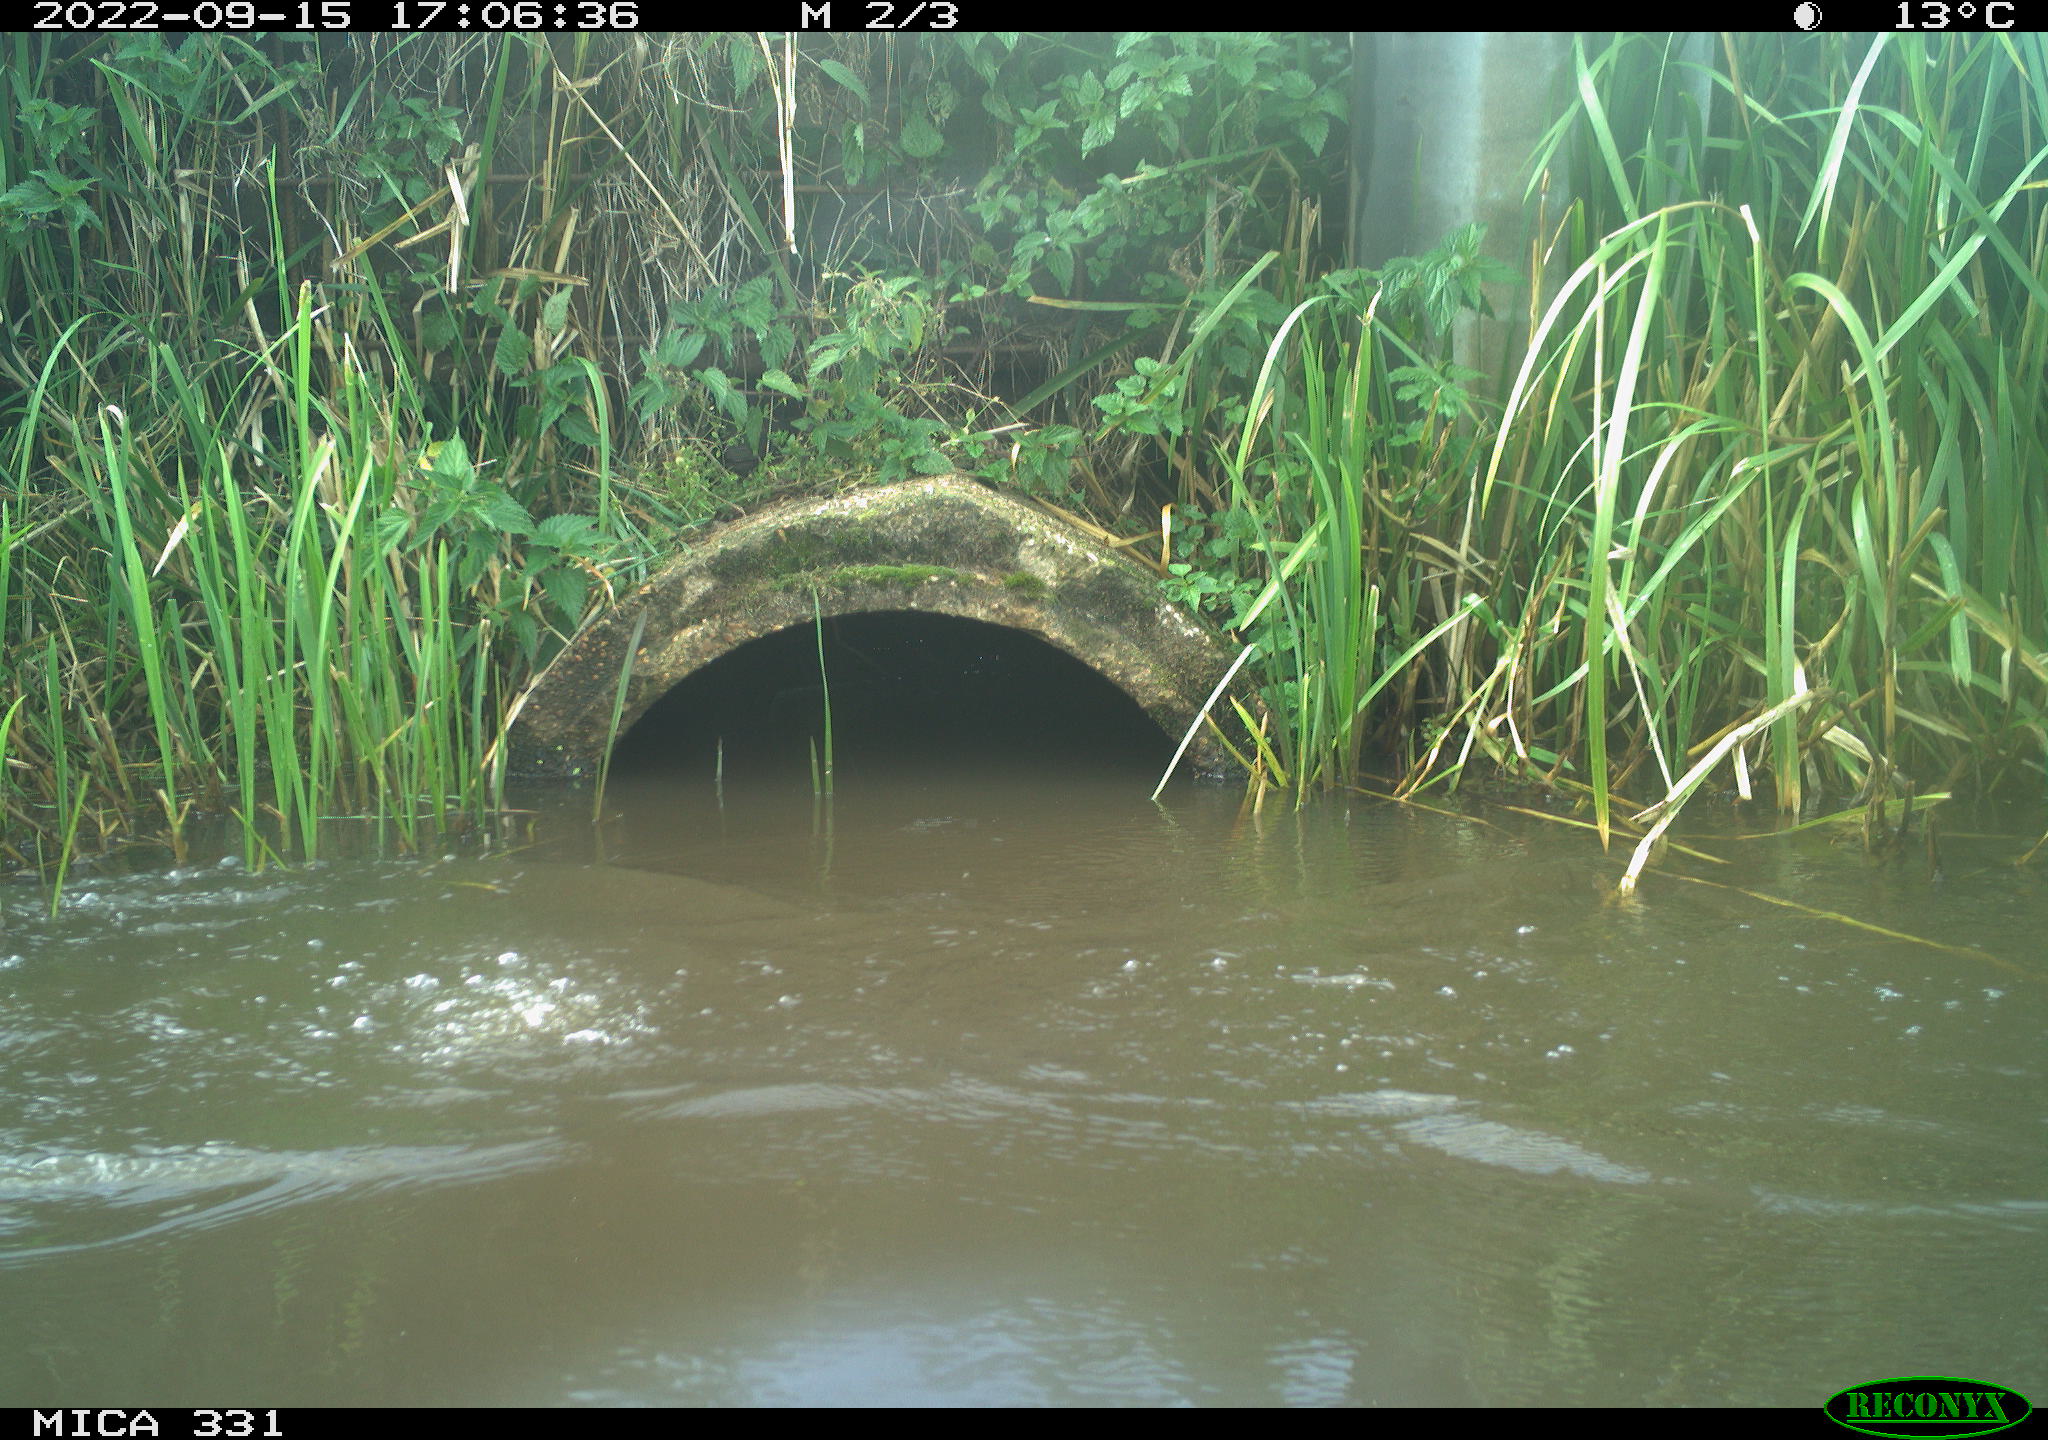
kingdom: Animalia
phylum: Chordata
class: Aves
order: Gruiformes
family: Rallidae
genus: Gallinula
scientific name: Gallinula chloropus
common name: Common moorhen
